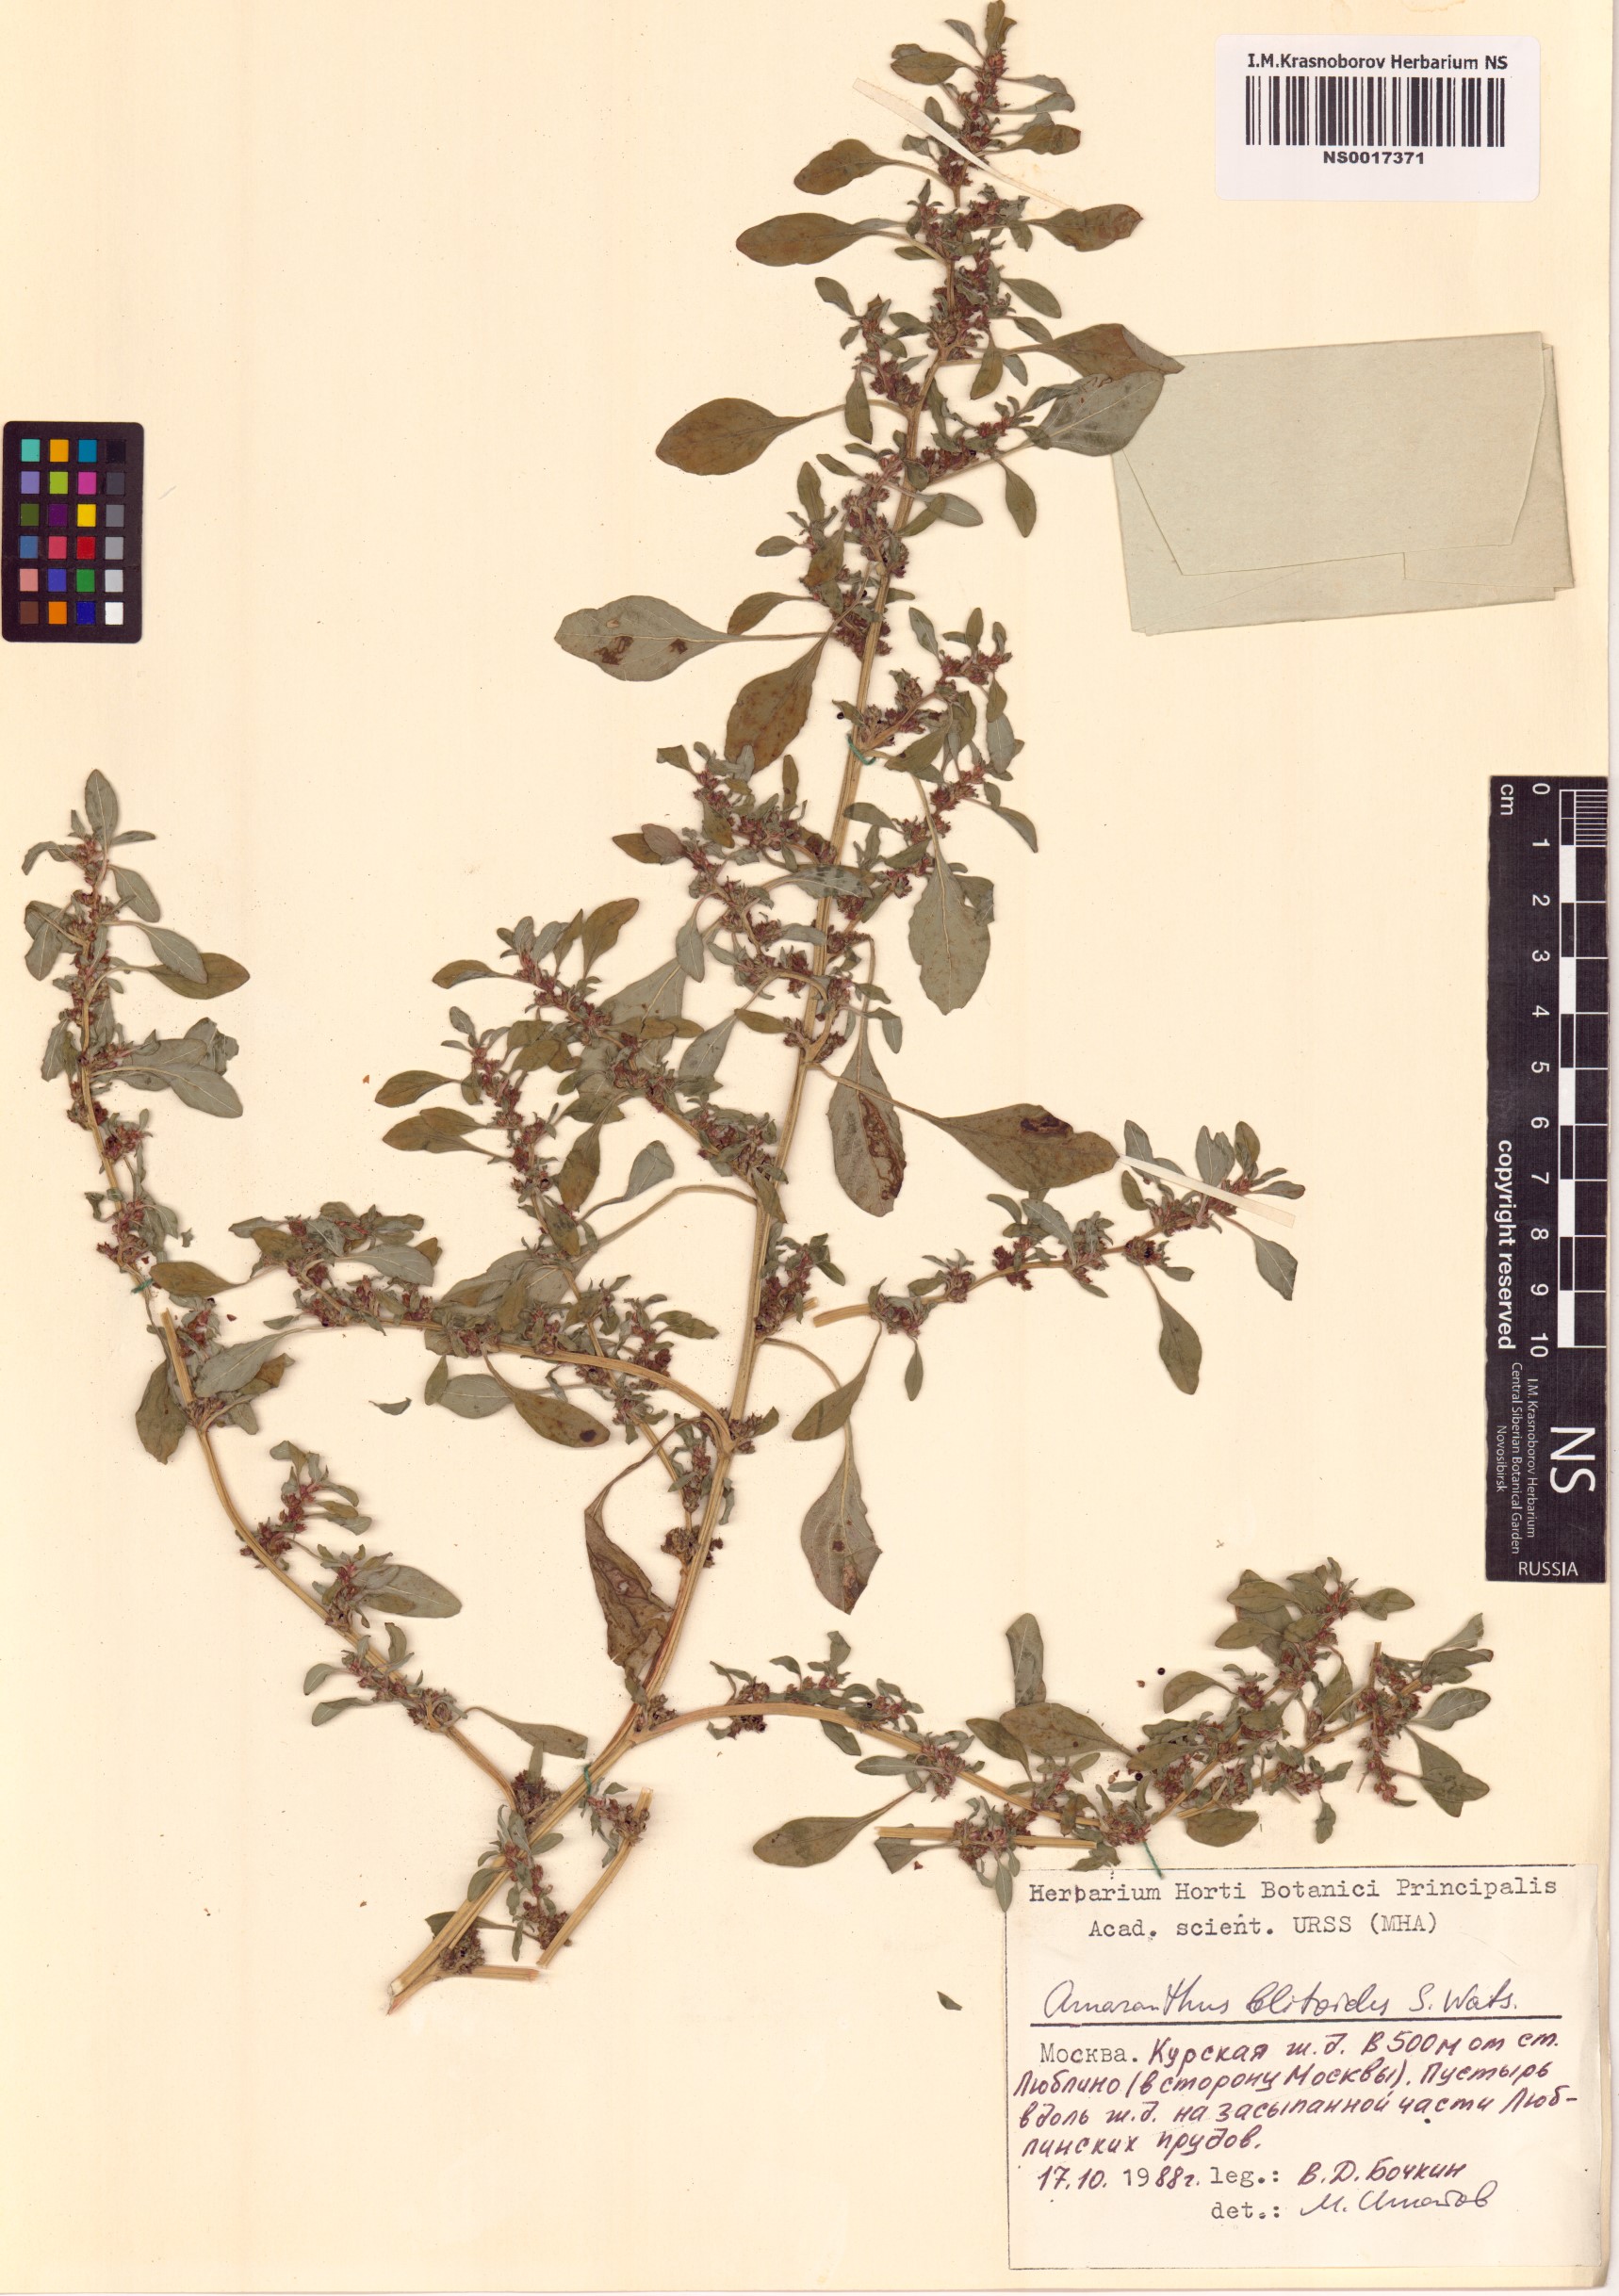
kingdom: Plantae
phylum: Tracheophyta
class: Magnoliopsida
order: Caryophyllales
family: Amaranthaceae
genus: Amaranthus
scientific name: Amaranthus blitoides
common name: Prostrate pigweed
